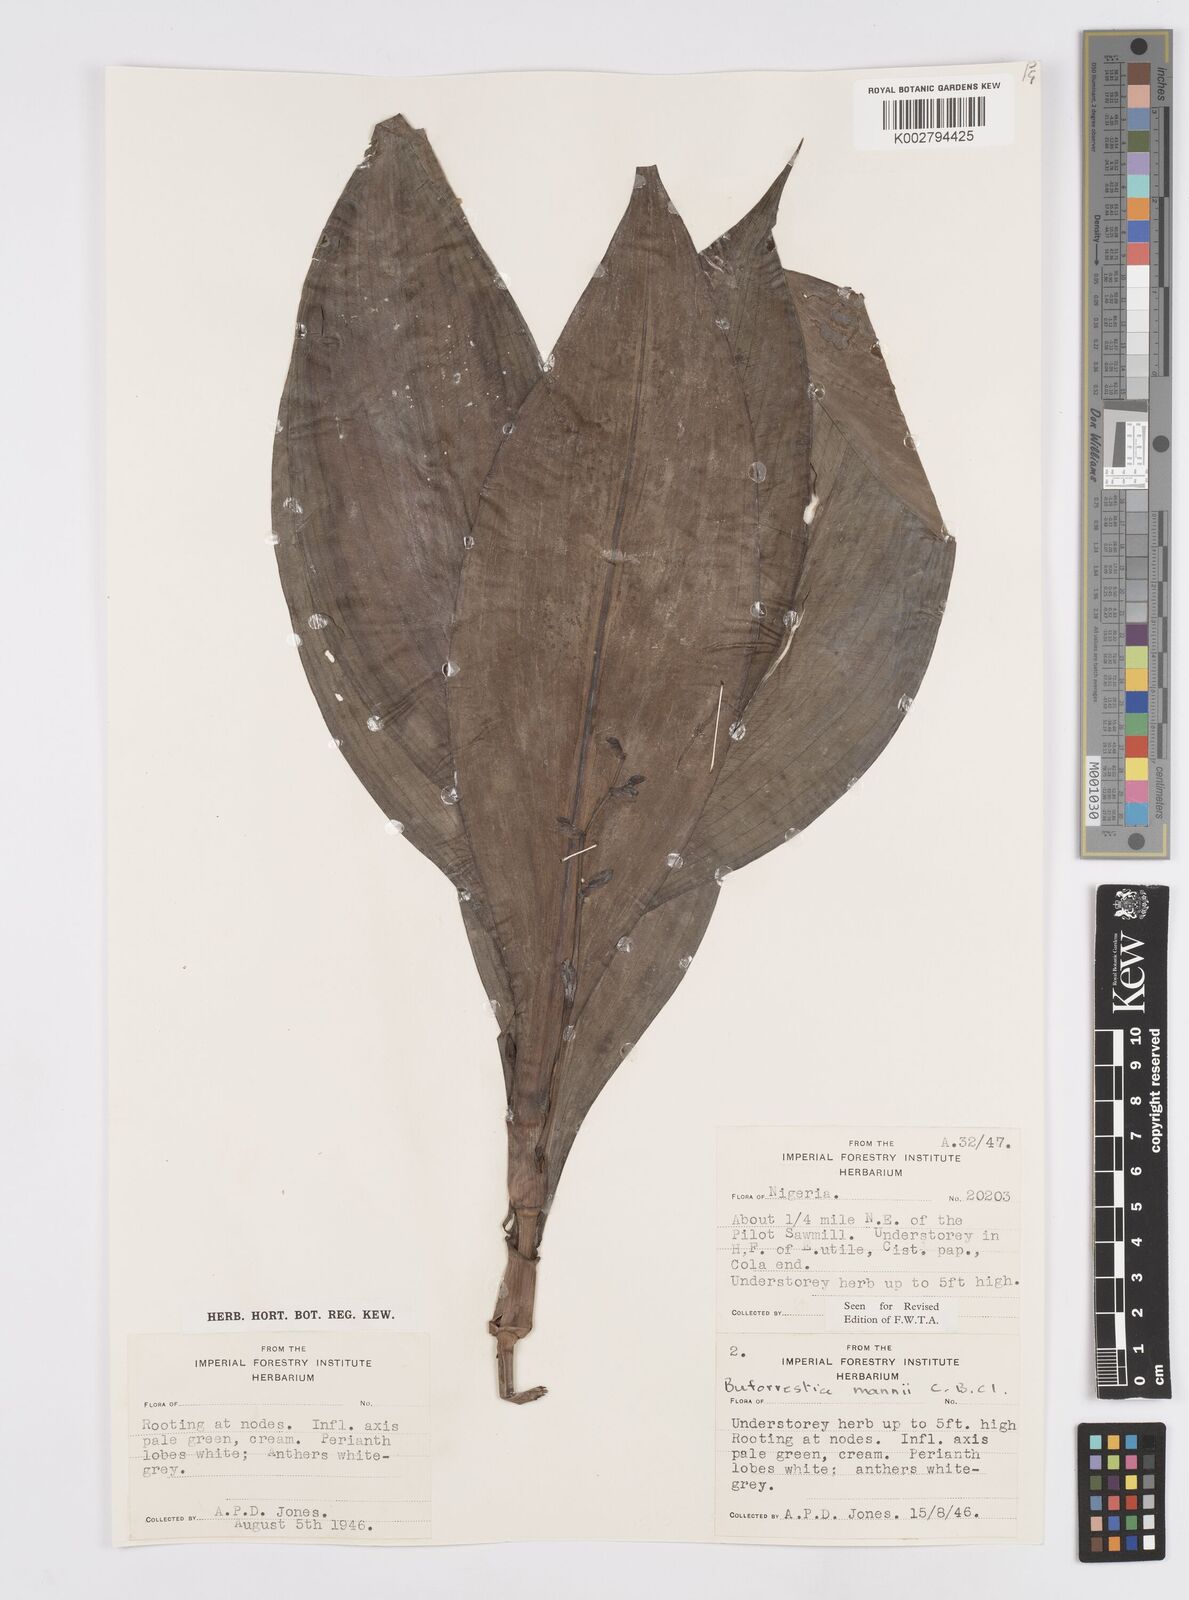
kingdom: Plantae
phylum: Tracheophyta
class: Liliopsida
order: Commelinales
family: Commelinaceae
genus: Buforrestia
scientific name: Buforrestia mannii
